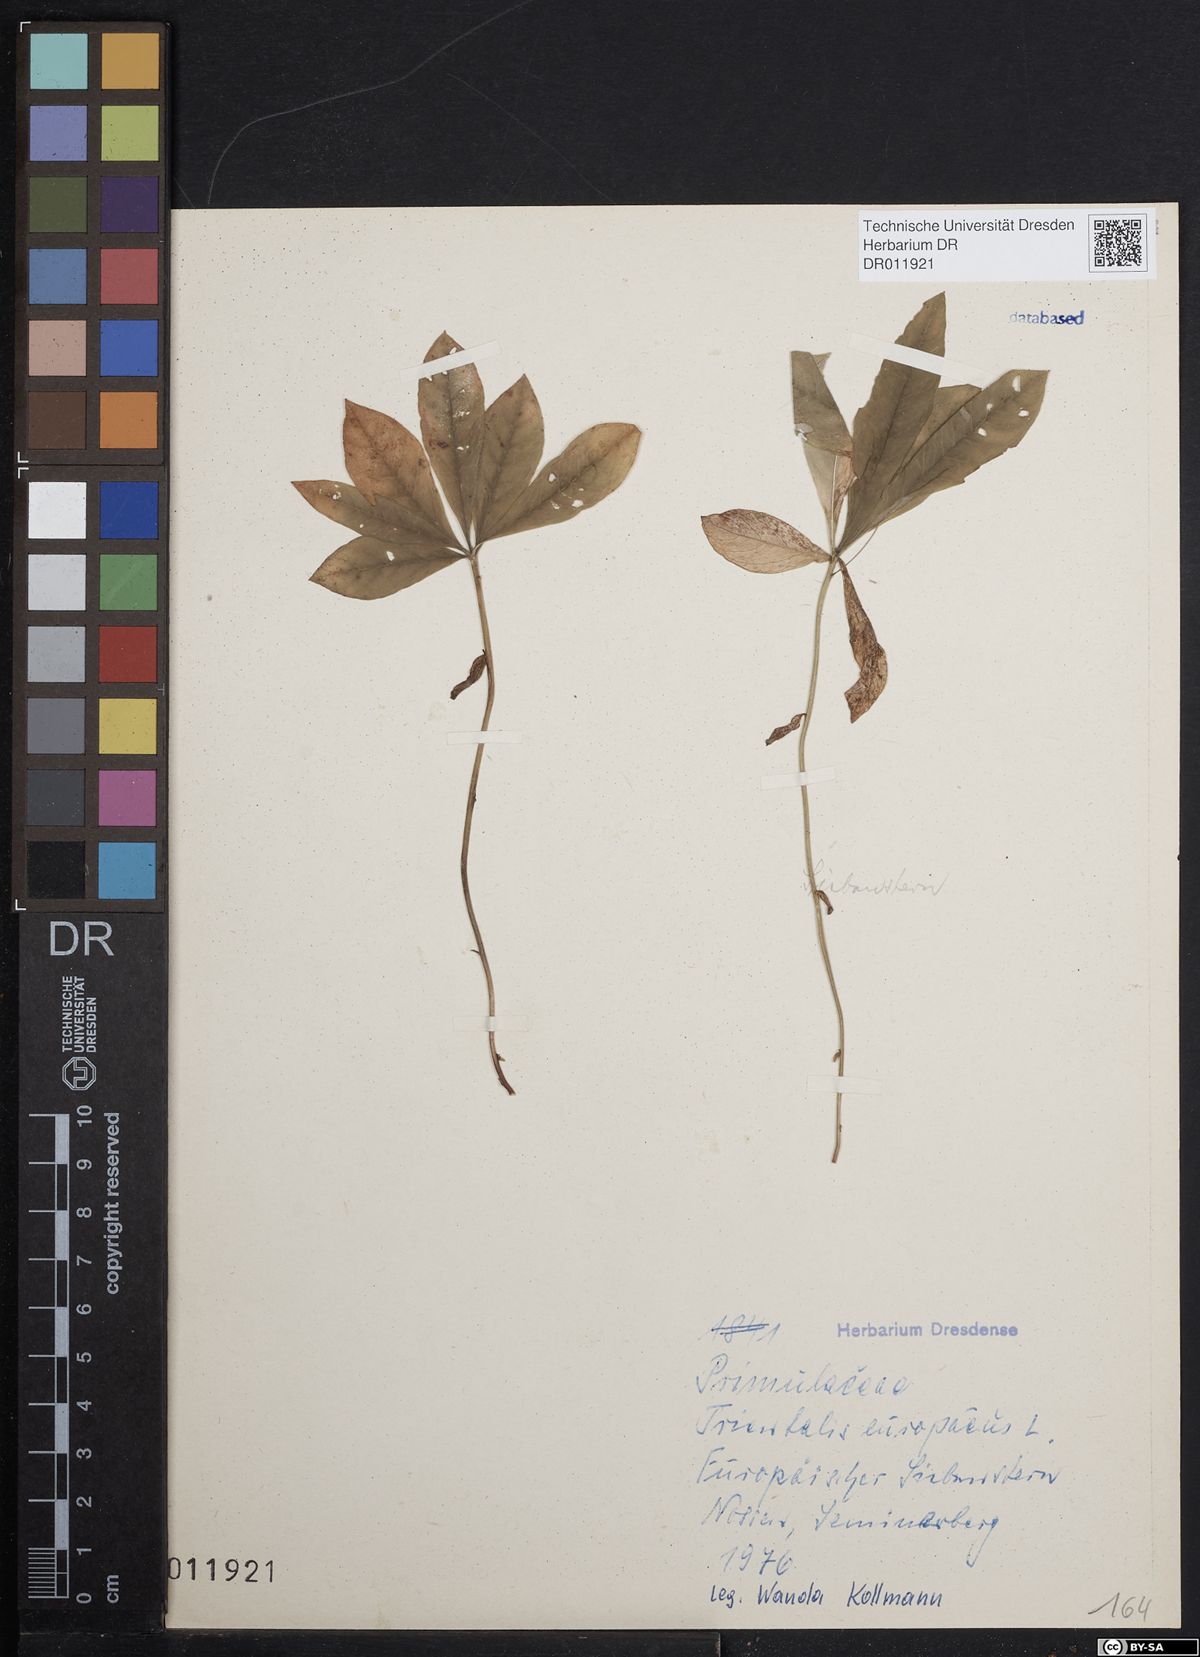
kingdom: Plantae
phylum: Tracheophyta
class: Magnoliopsida
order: Ericales
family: Primulaceae
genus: Lysimachia
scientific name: Lysimachia europaea
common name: Arctic starflower
